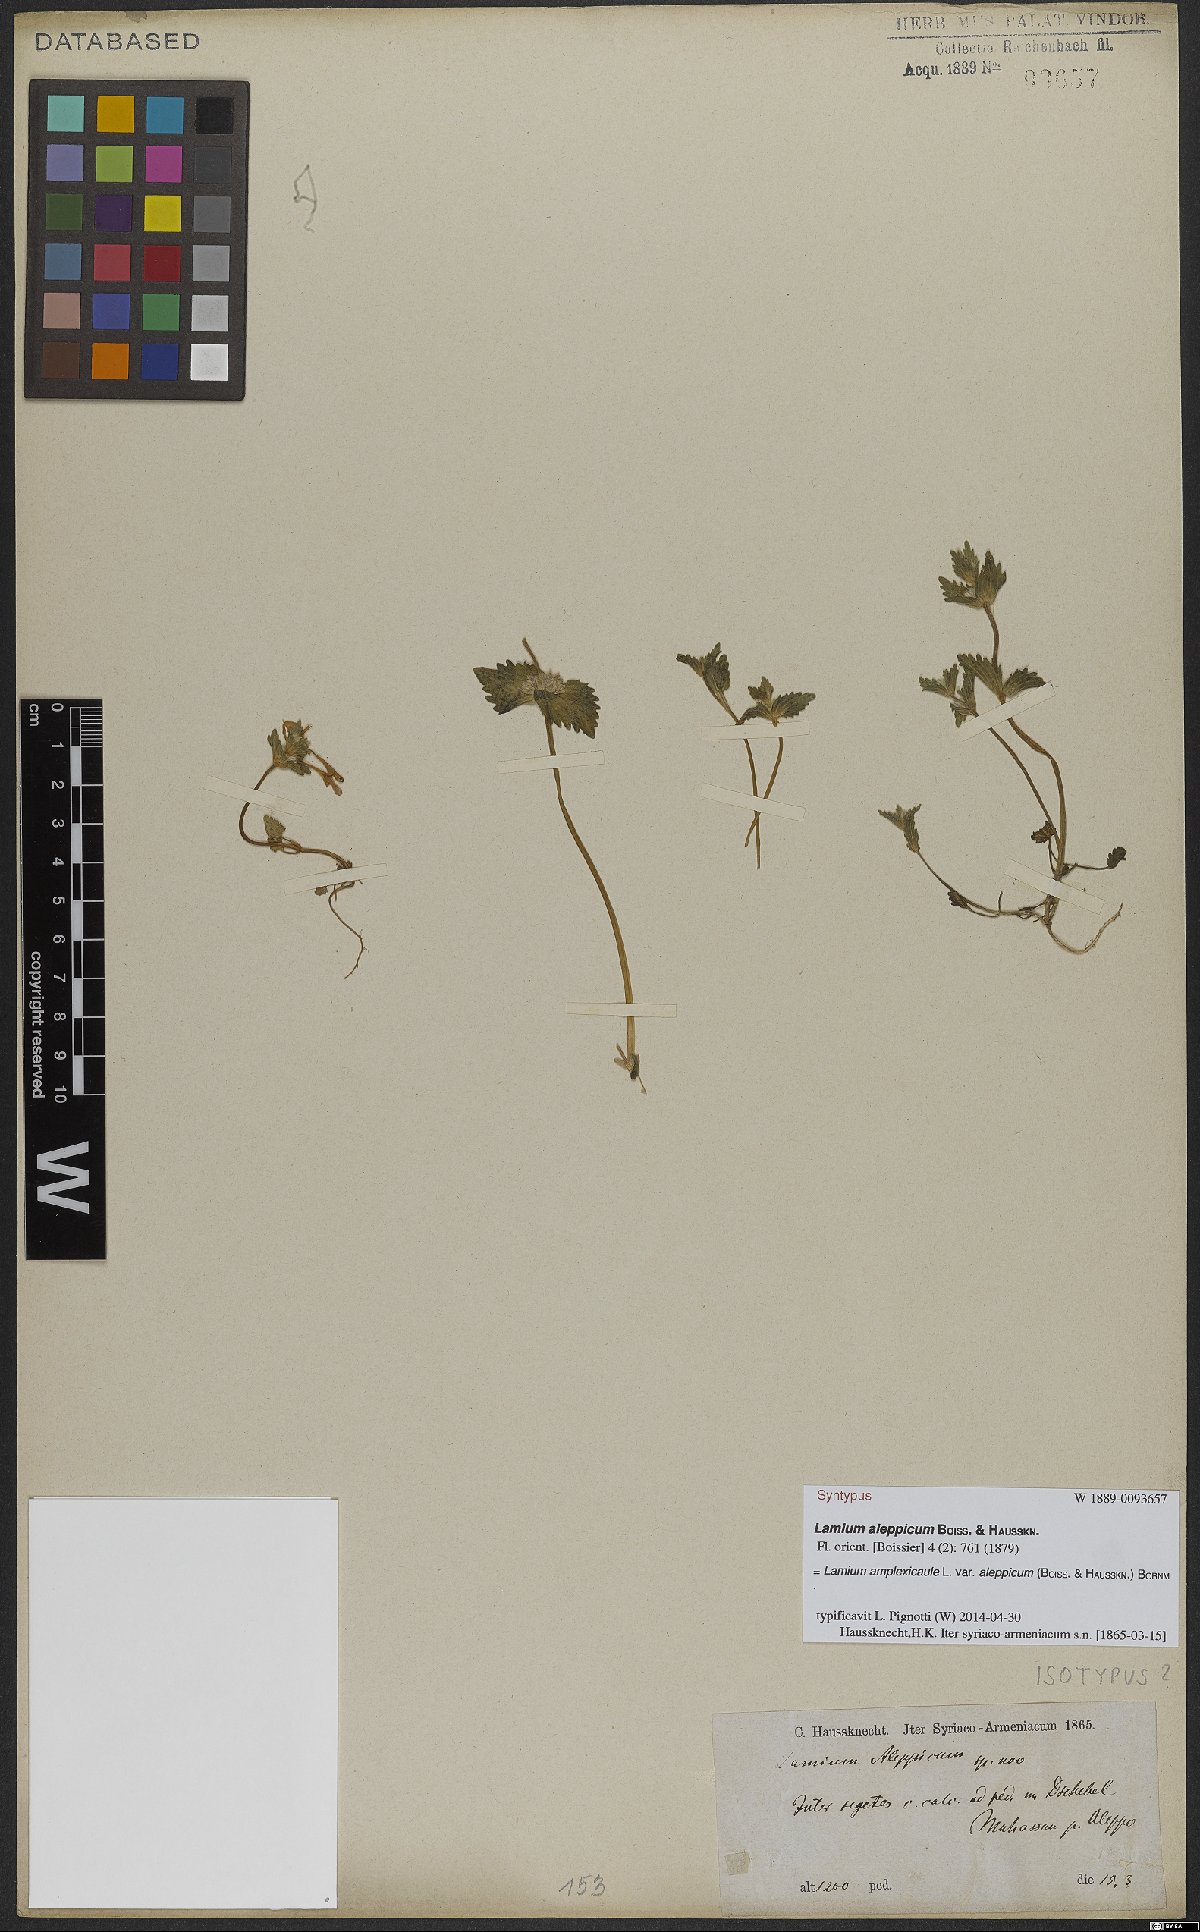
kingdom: Plantae
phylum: Tracheophyta
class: Magnoliopsida
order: Lamiales
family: Lamiaceae
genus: Lamium
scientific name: Lamium amplexicaule
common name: Henbit dead-nettle
